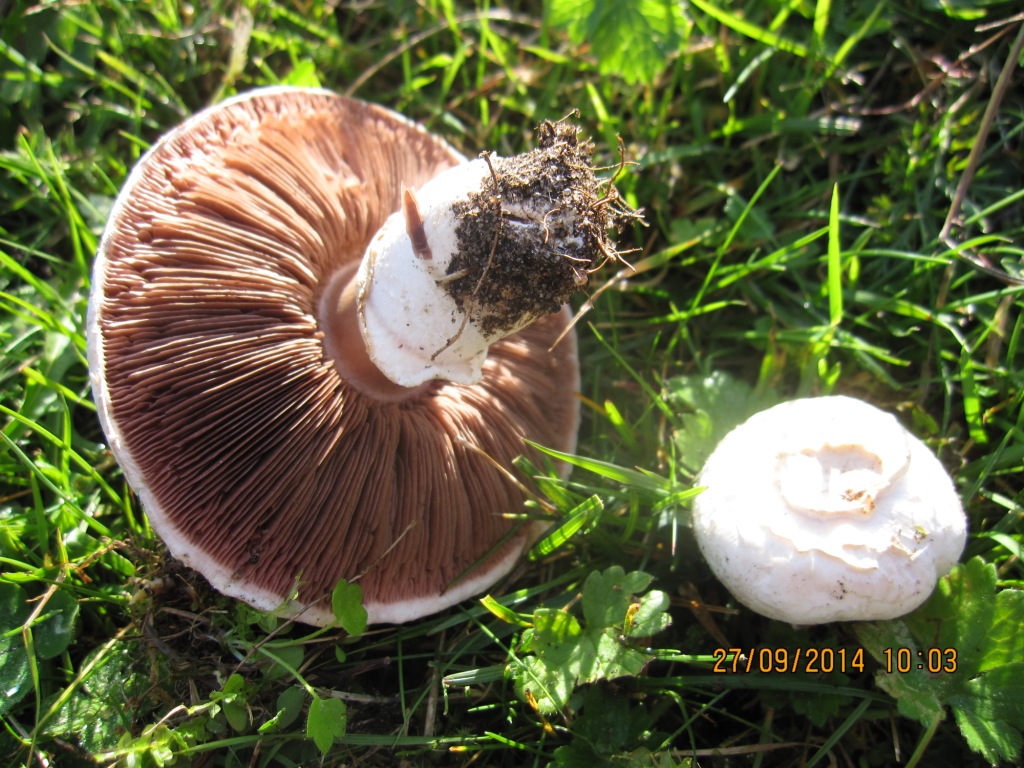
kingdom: Fungi
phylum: Basidiomycota
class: Agaricomycetes
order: Agaricales
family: Agaricaceae
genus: Agaricus
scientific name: Agaricus campestris
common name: mark-champignon
